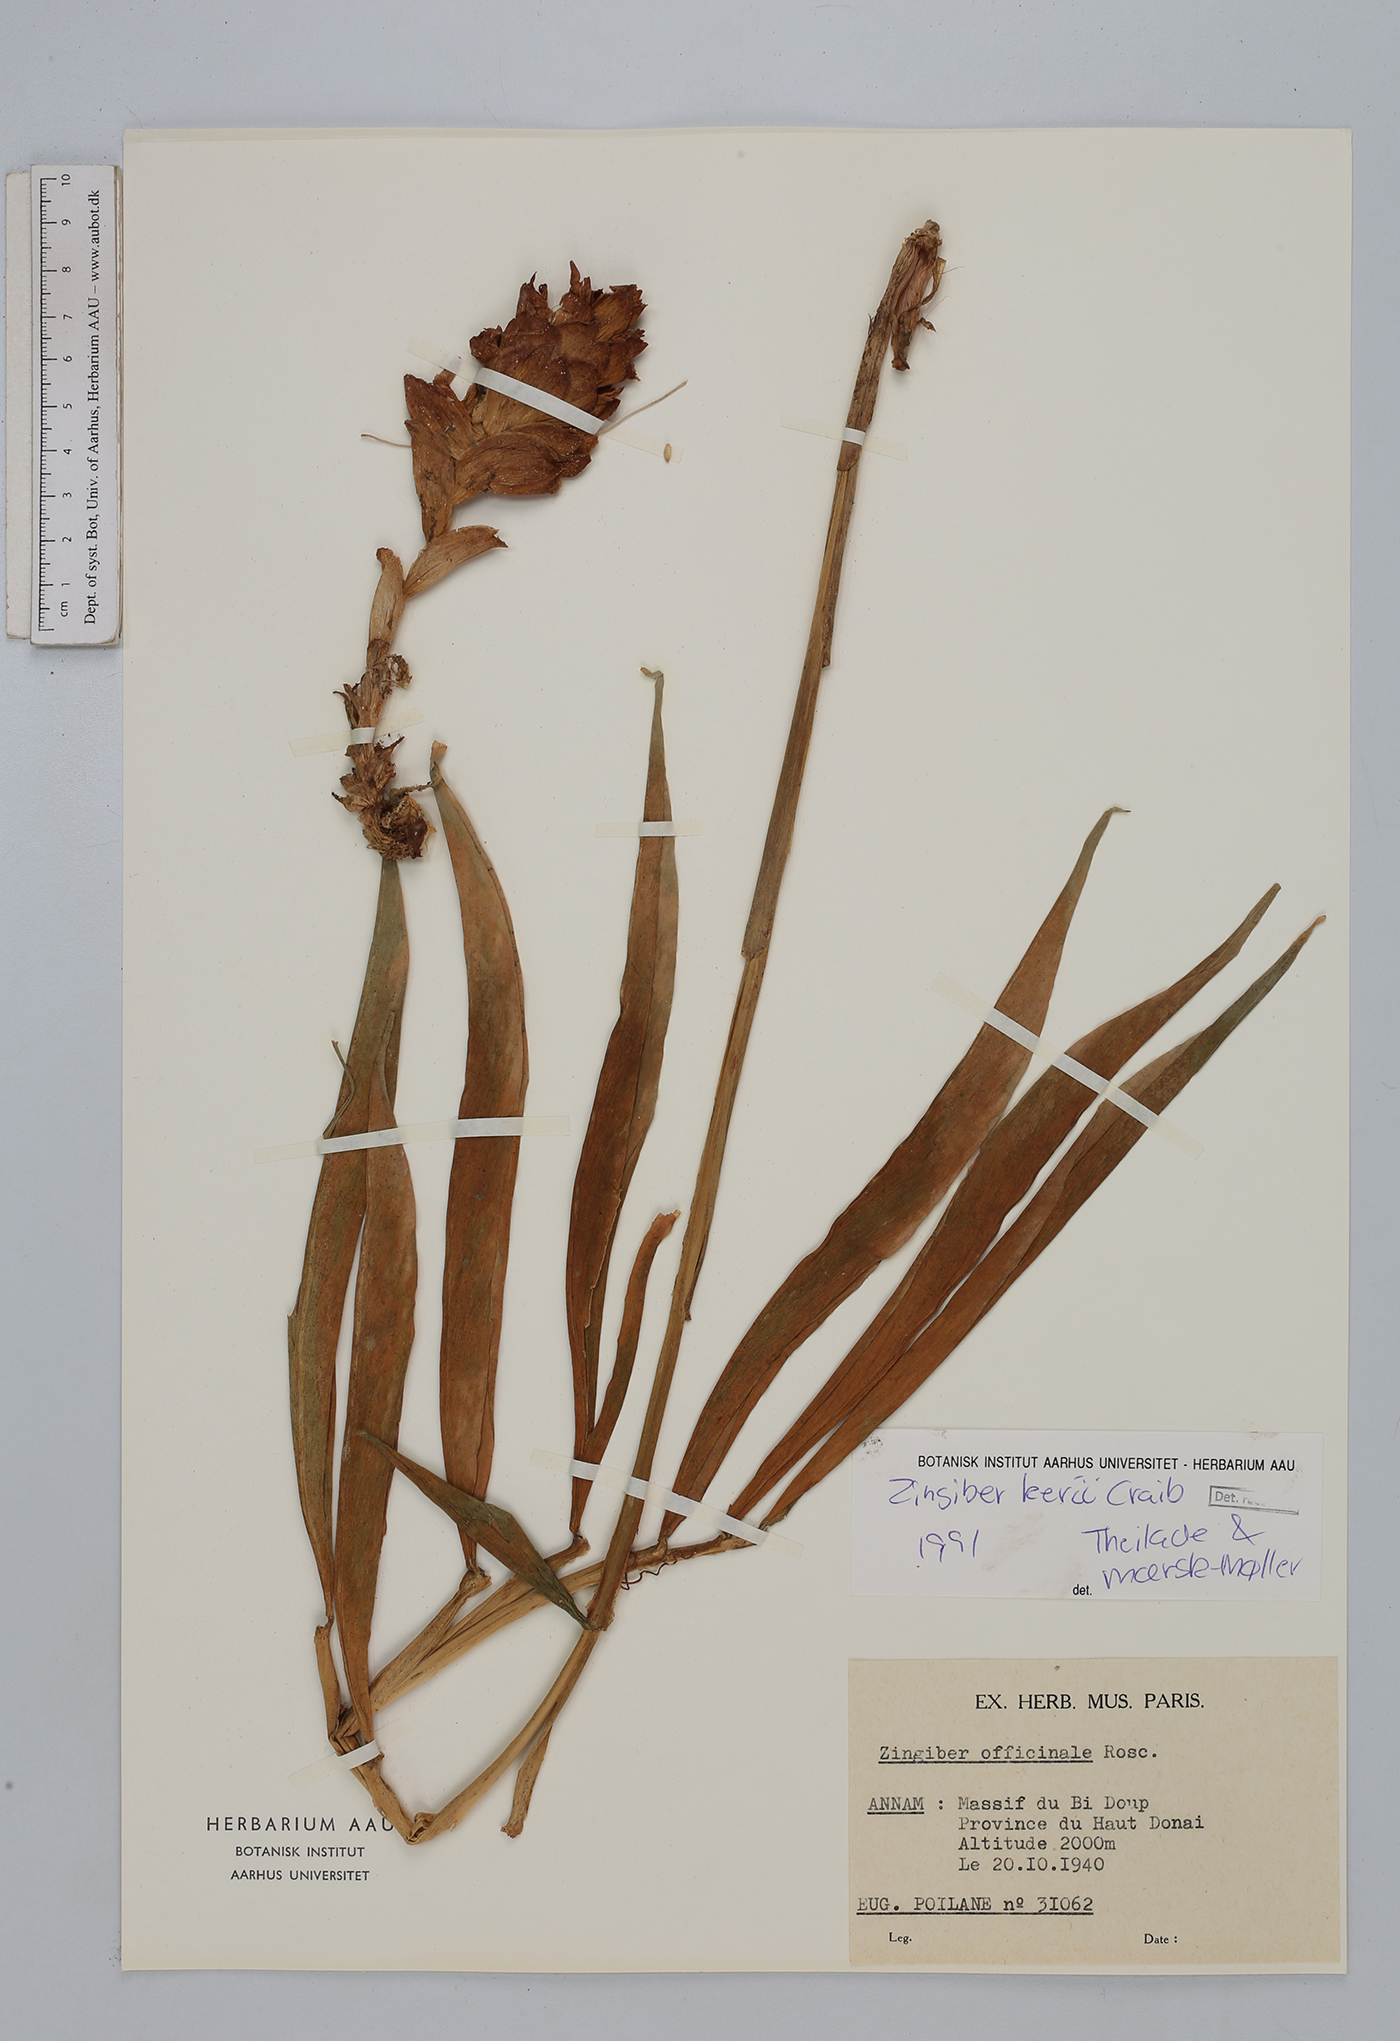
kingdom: Plantae
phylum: Tracheophyta
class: Liliopsida
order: Zingiberales
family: Zingiberaceae
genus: Zingiber
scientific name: Zingiber kerrii
